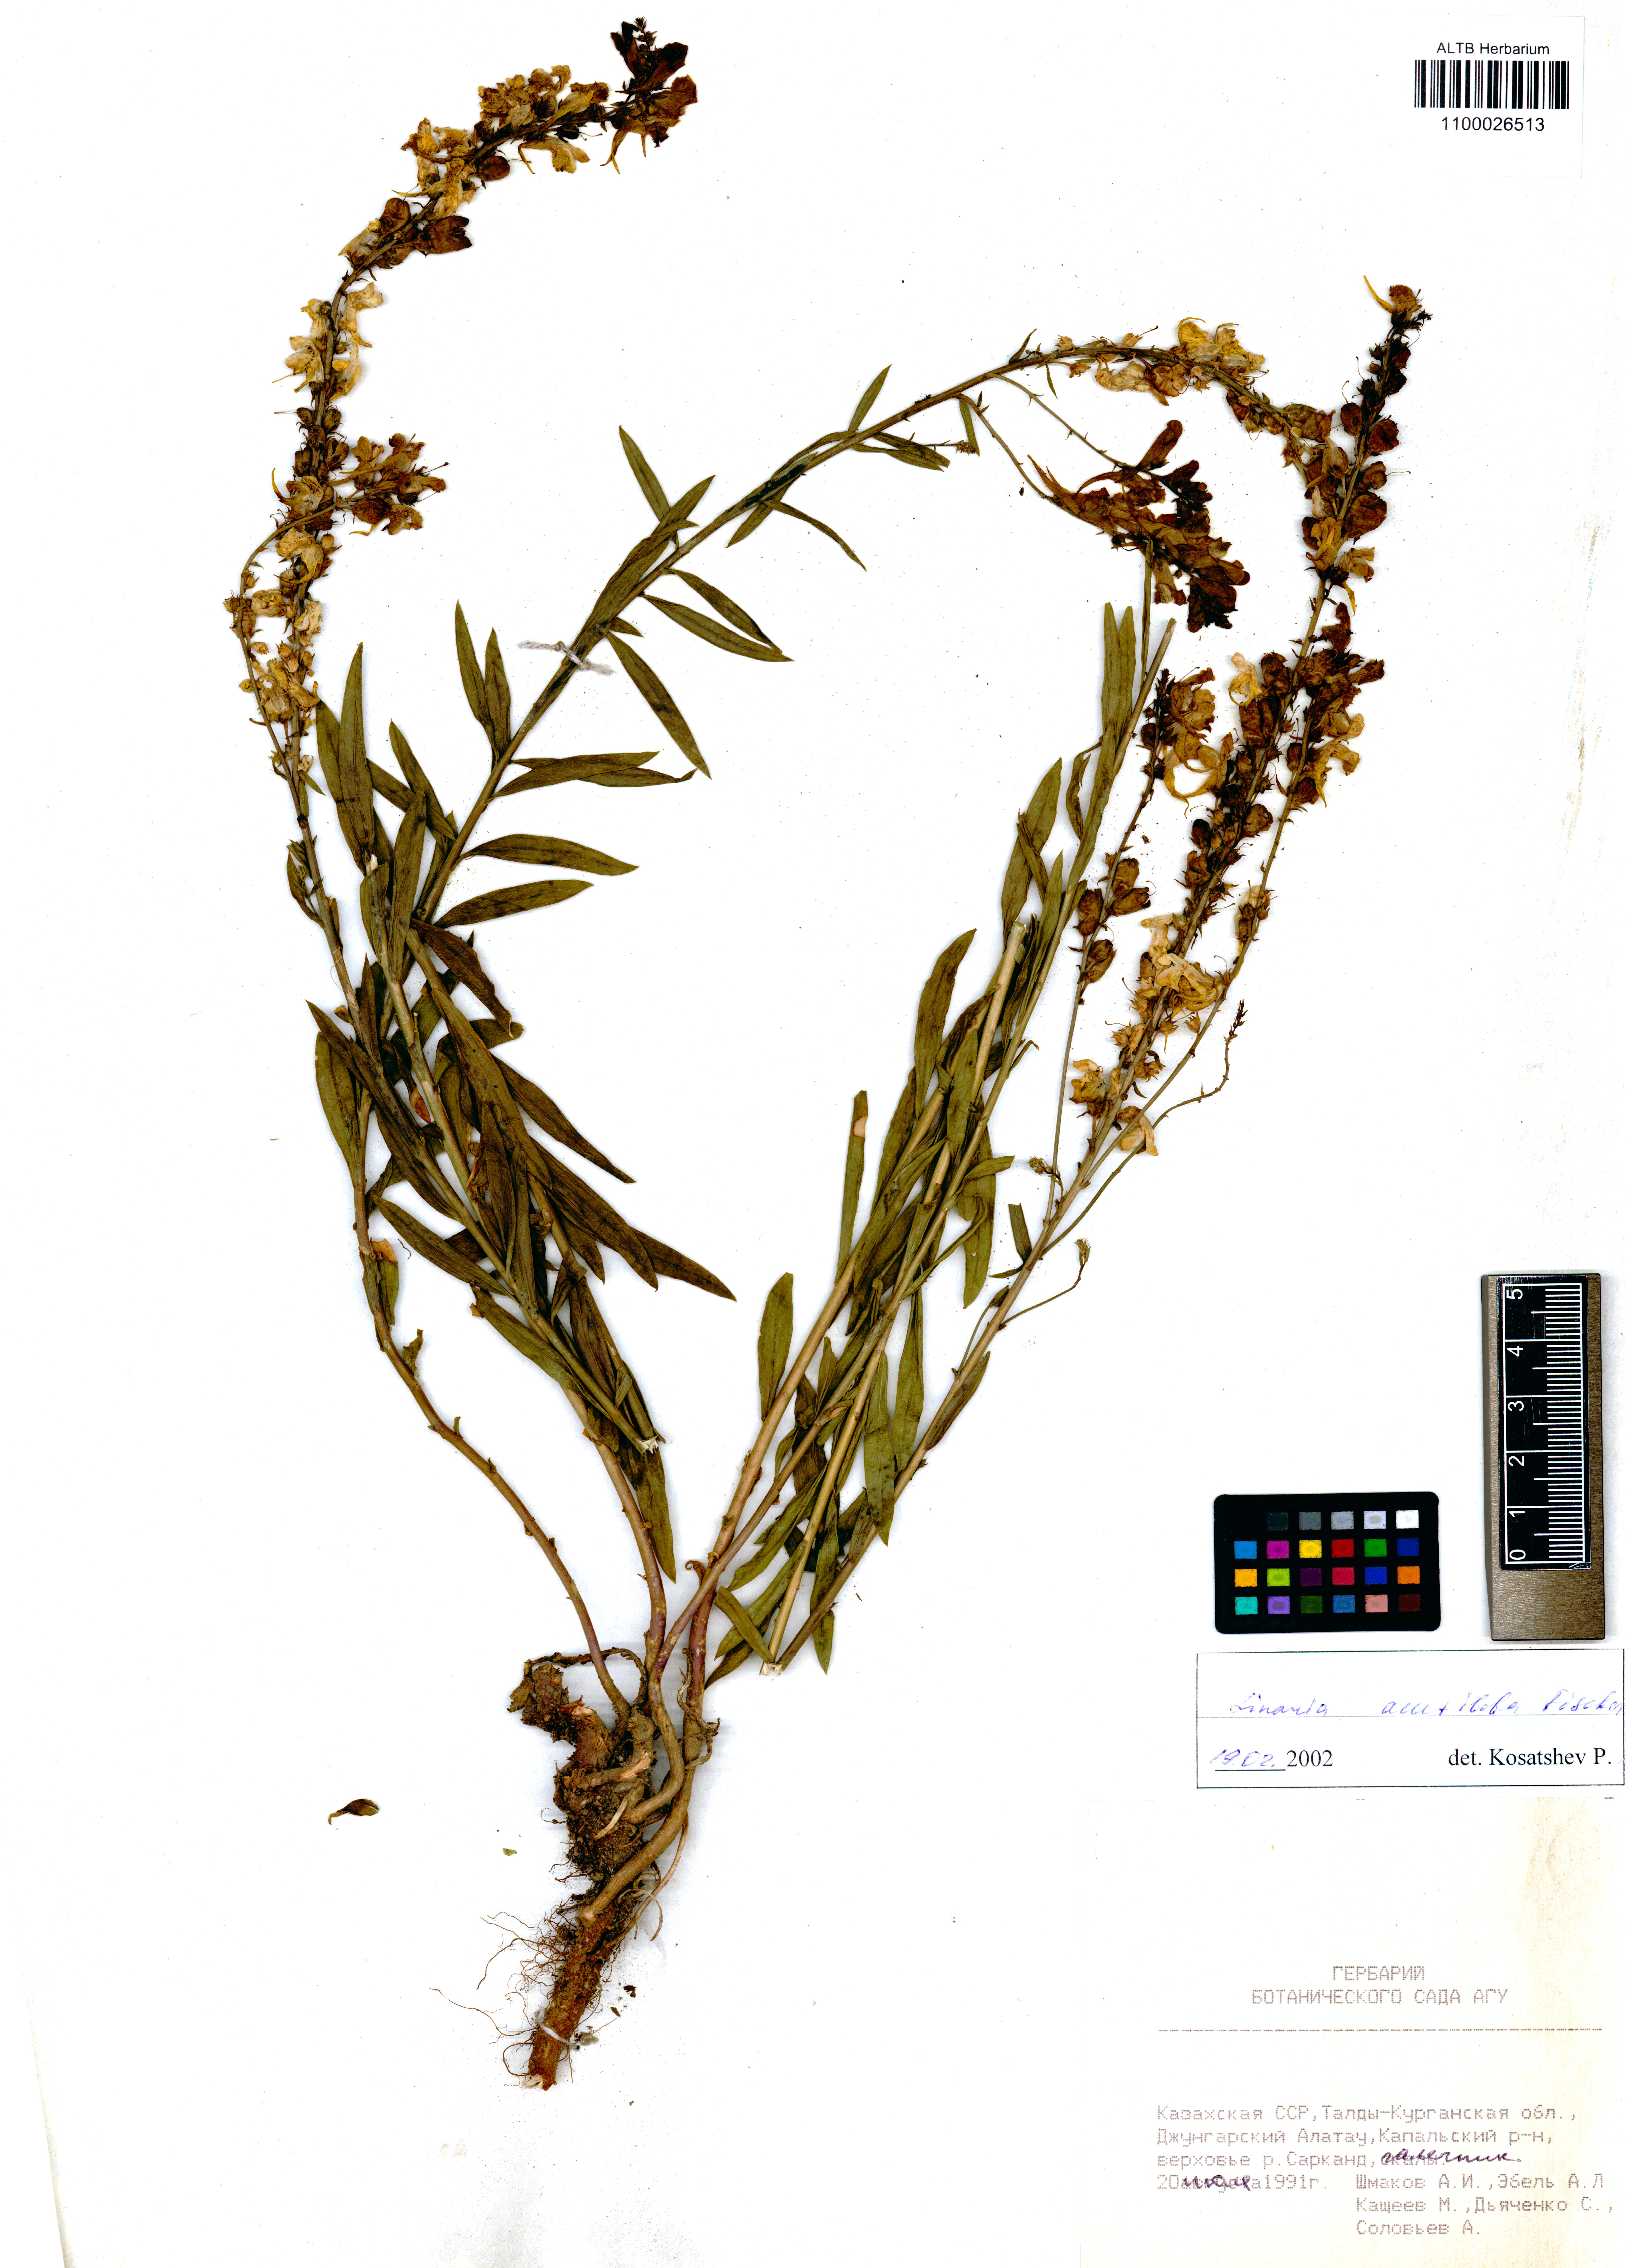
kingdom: Plantae
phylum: Tracheophyta
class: Magnoliopsida
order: Lamiales
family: Plantaginaceae
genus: Linaria
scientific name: Linaria acutiloba
